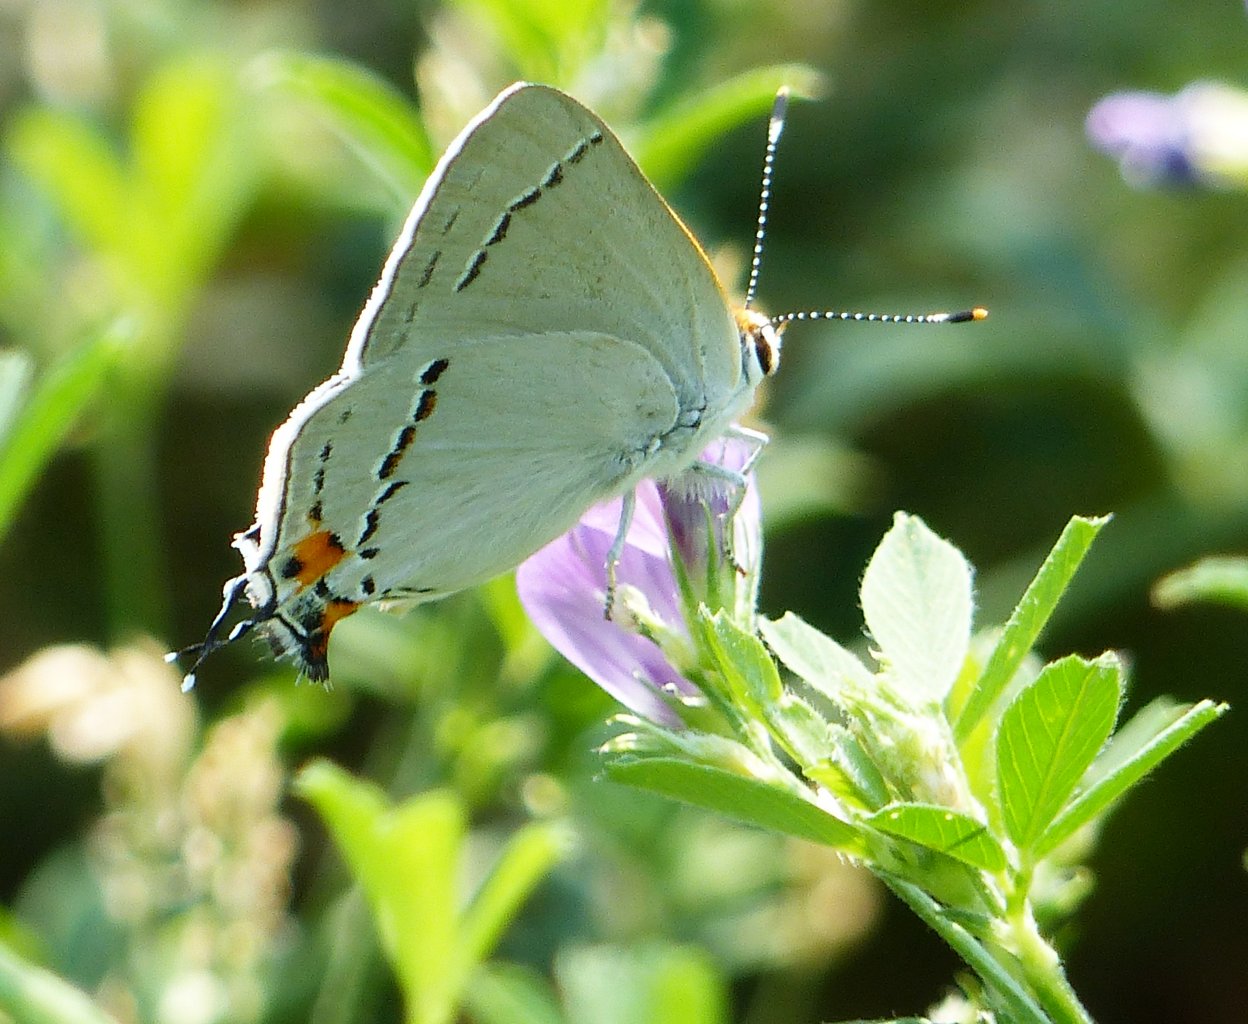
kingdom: Animalia
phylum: Arthropoda
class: Insecta
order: Lepidoptera
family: Lycaenidae
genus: Strymon
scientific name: Strymon melinus
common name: Gray Hairstreak
